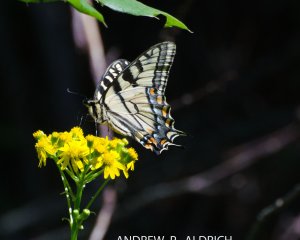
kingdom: Animalia
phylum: Arthropoda
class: Insecta
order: Lepidoptera
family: Papilionidae
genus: Pterourus
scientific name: Pterourus canadensis
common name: Canadian Tiger Swallowtail
